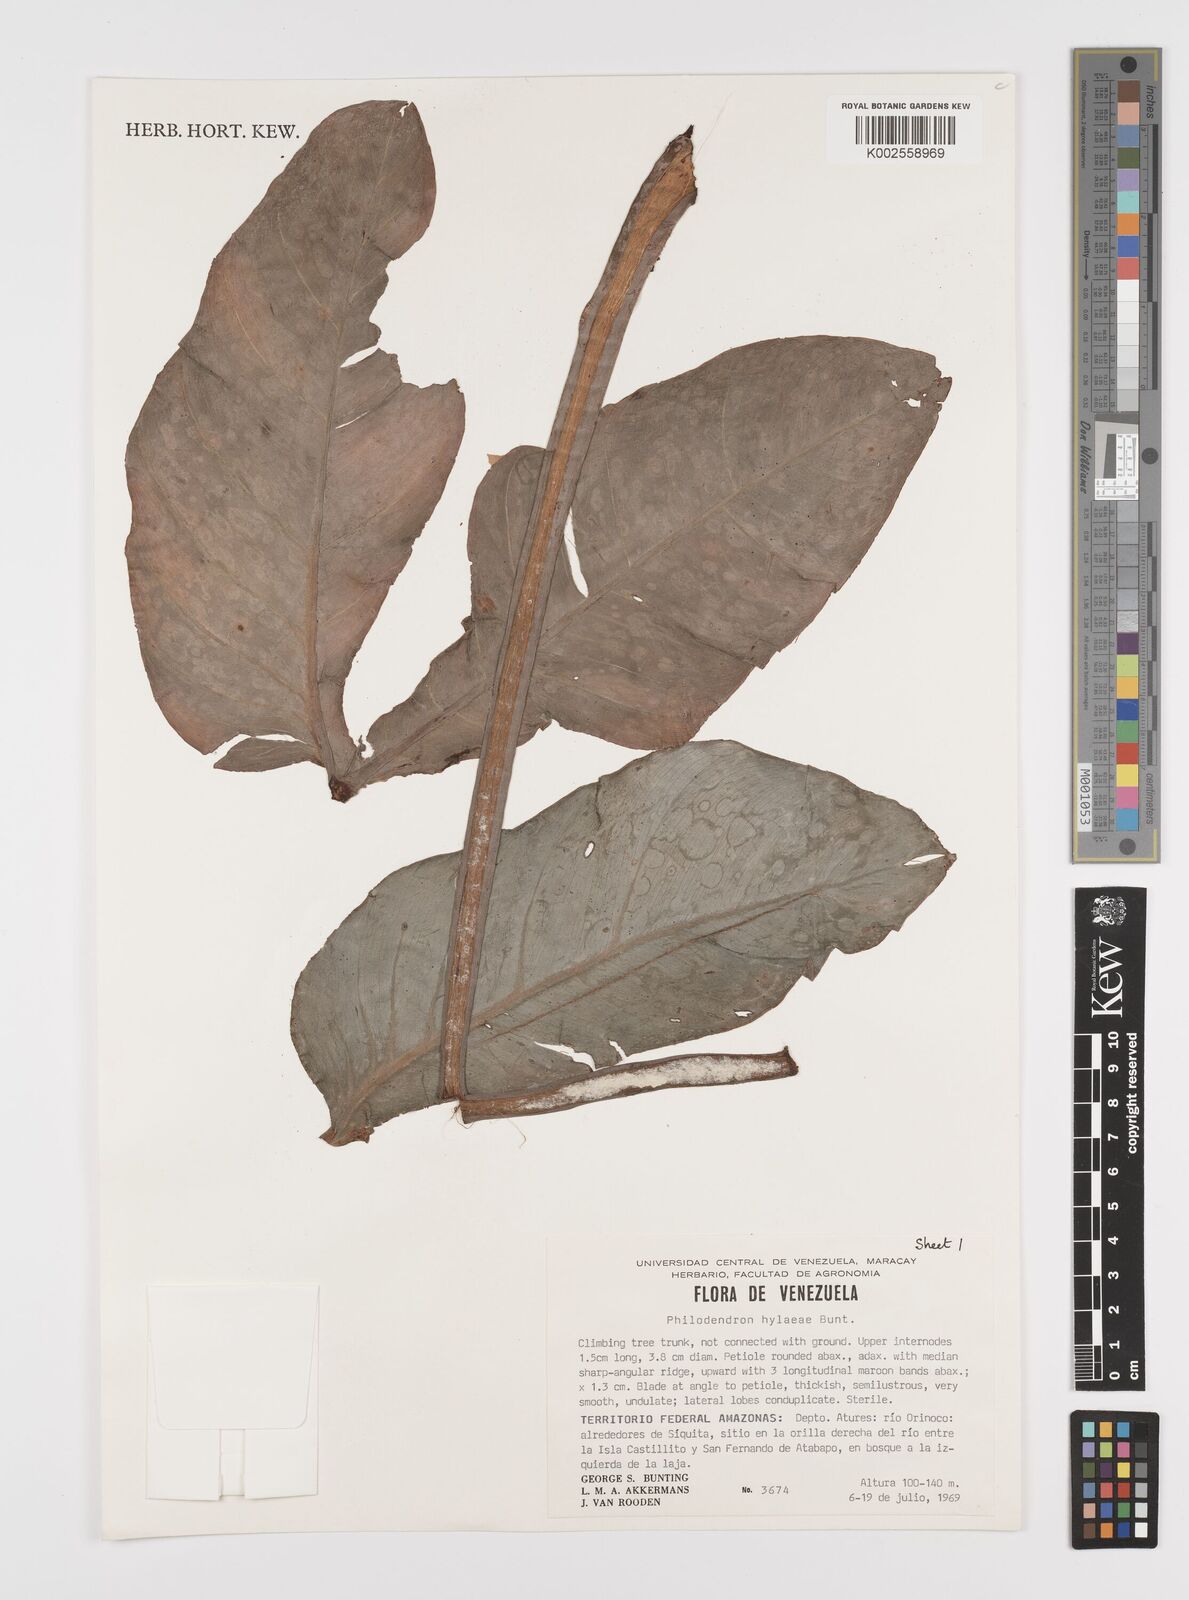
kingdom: Plantae
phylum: Tracheophyta
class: Liliopsida
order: Alismatales
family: Araceae
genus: Philodendron
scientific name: Philodendron hylaeae
